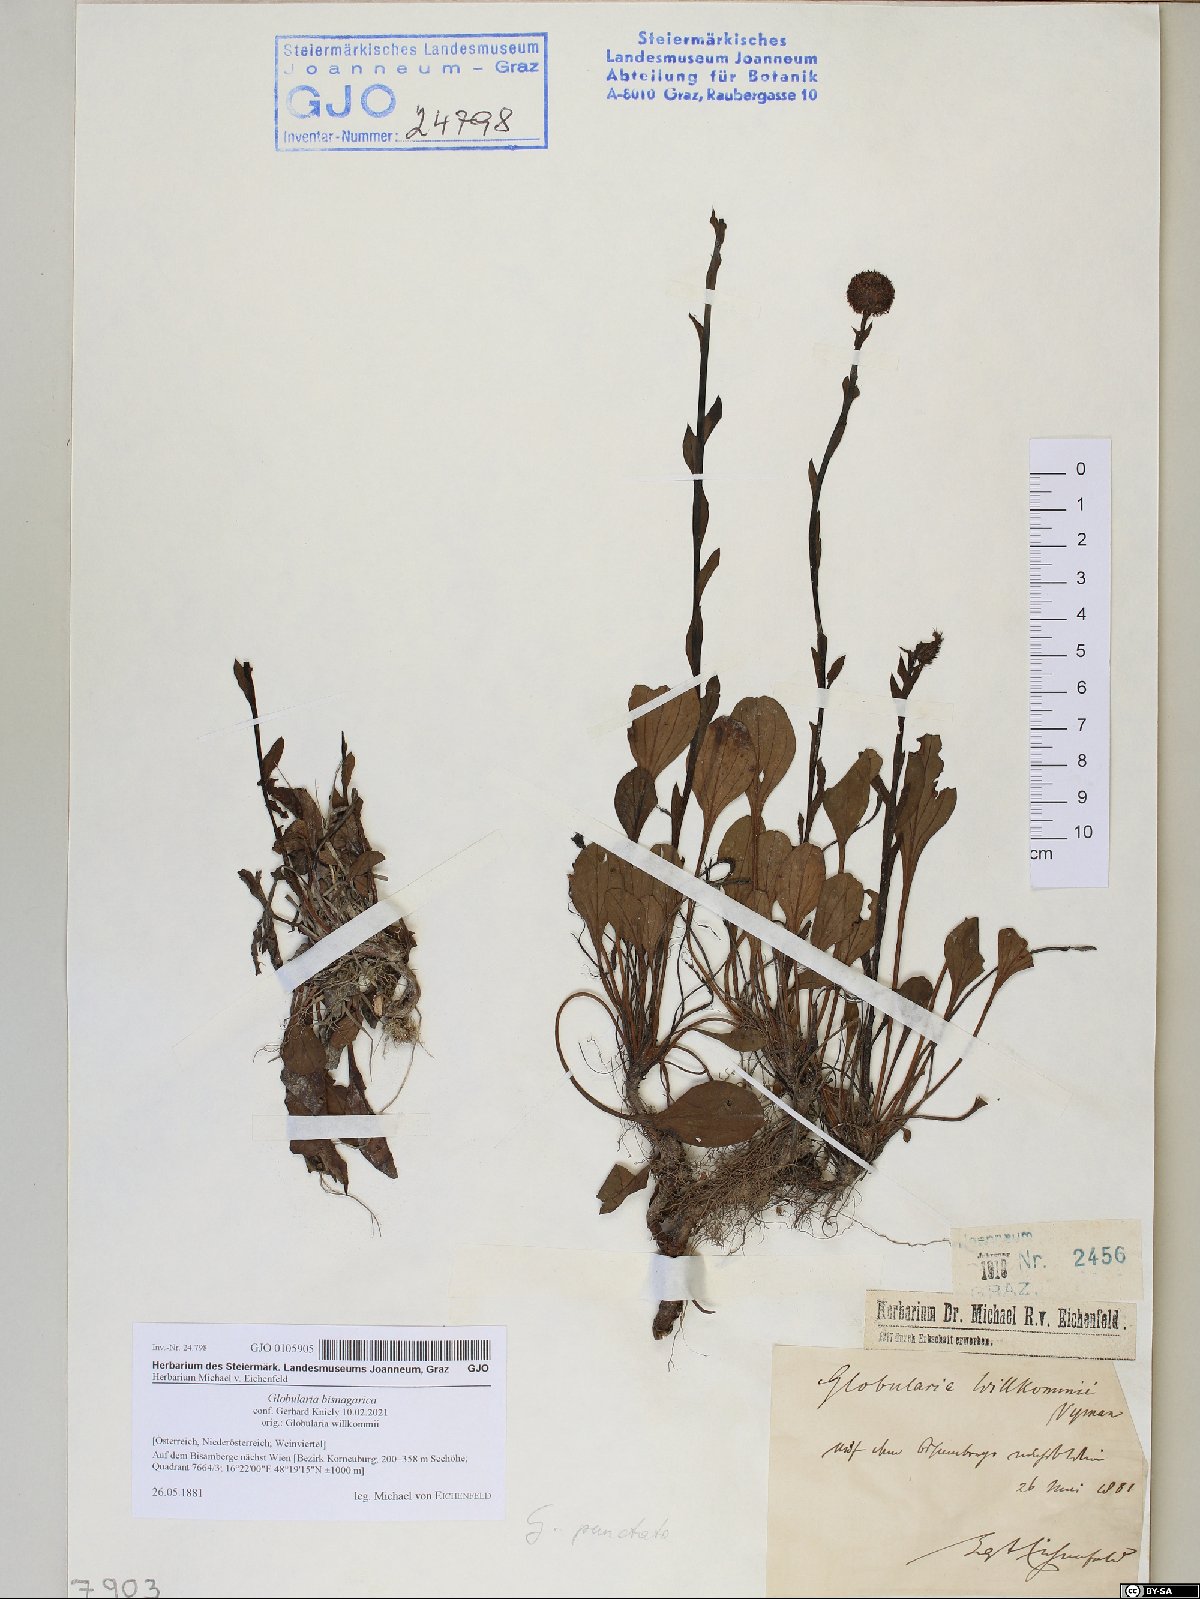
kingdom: Plantae
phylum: Tracheophyta
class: Magnoliopsida
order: Lamiales
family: Plantaginaceae
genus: Globularia
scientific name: Globularia bisnagarica
